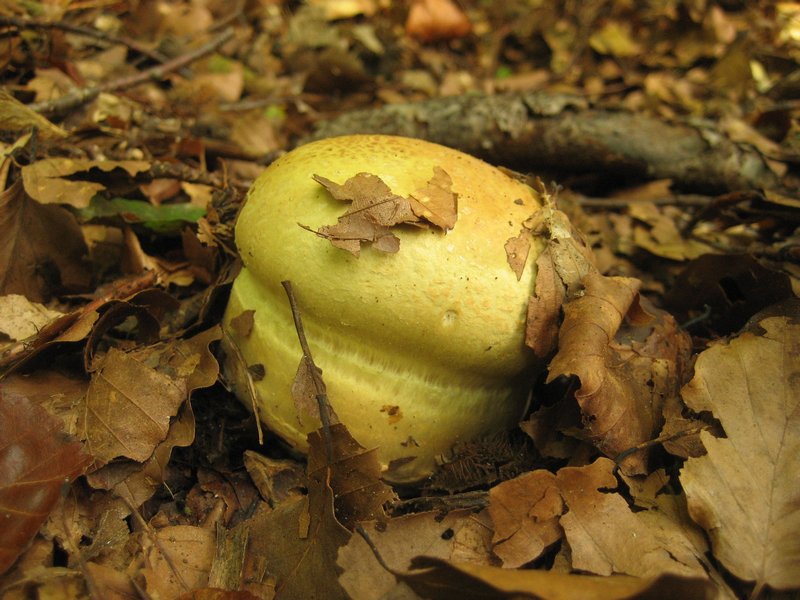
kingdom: Fungi
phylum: Basidiomycota
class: Agaricomycetes
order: Agaricales
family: Cortinariaceae
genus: Cortinarius
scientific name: Cortinarius
